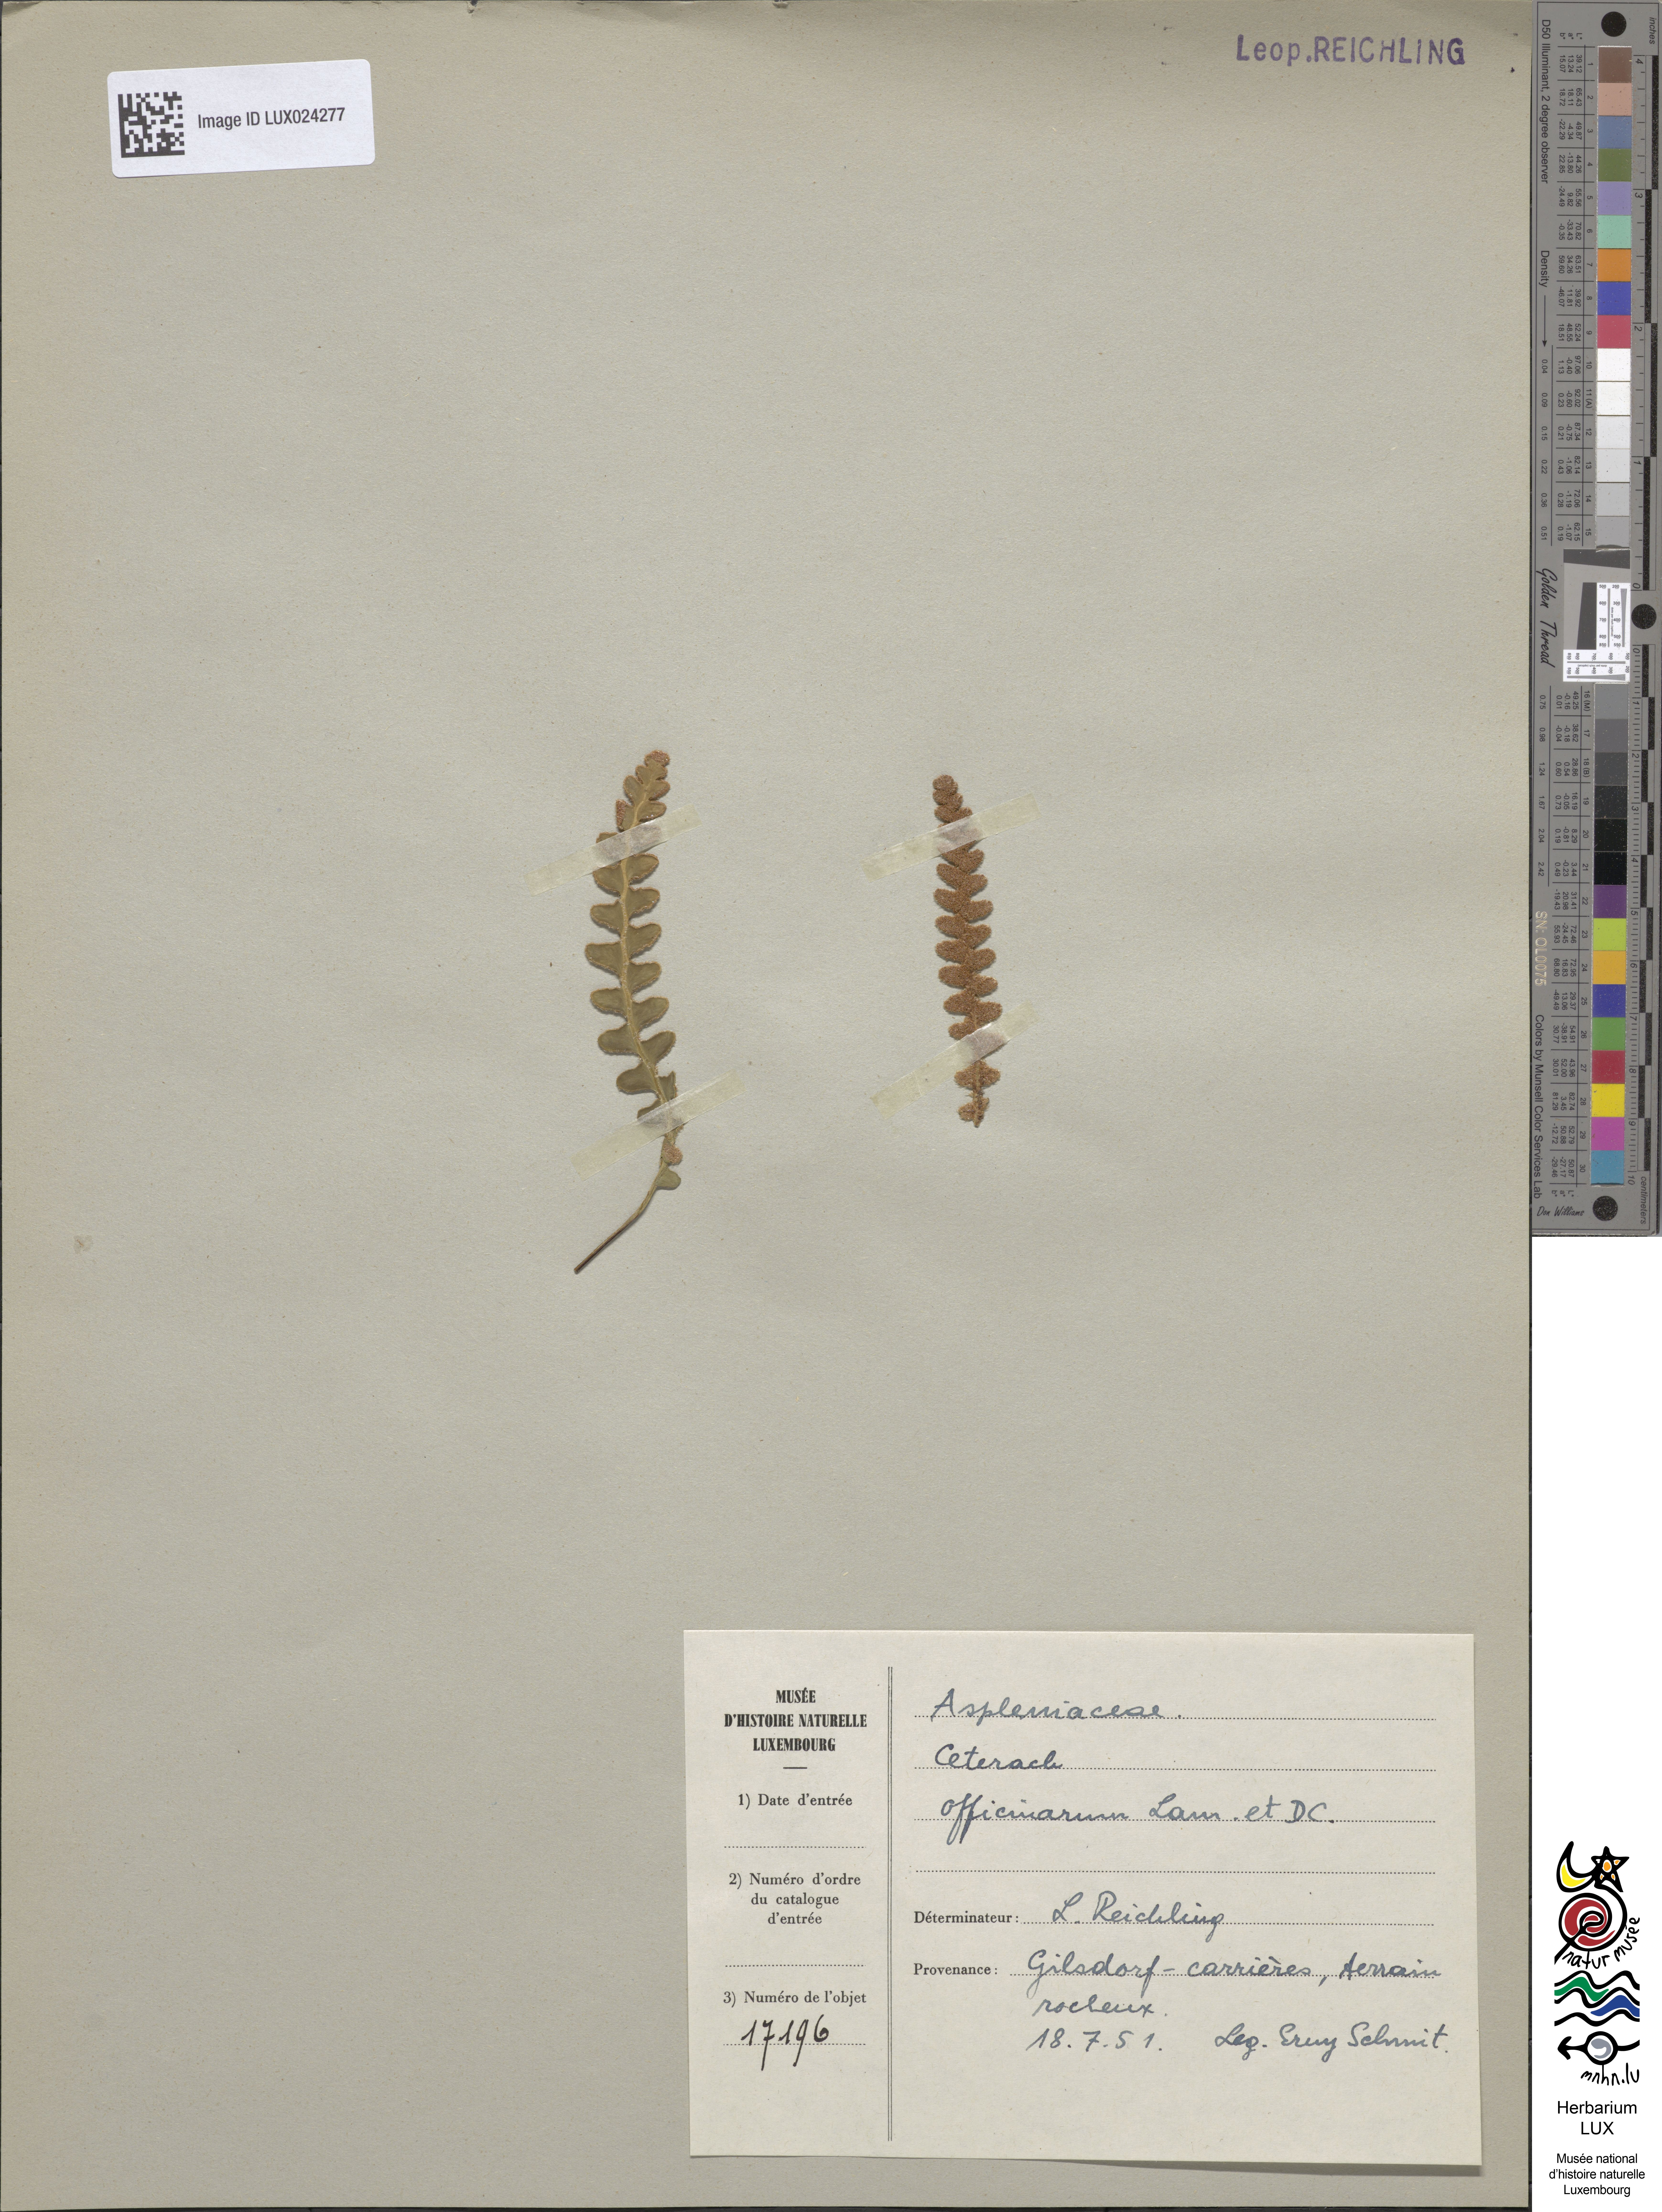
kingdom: Plantae
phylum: Tracheophyta
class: Polypodiopsida
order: Polypodiales
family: Aspleniaceae
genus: Asplenium
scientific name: Asplenium ceterach
